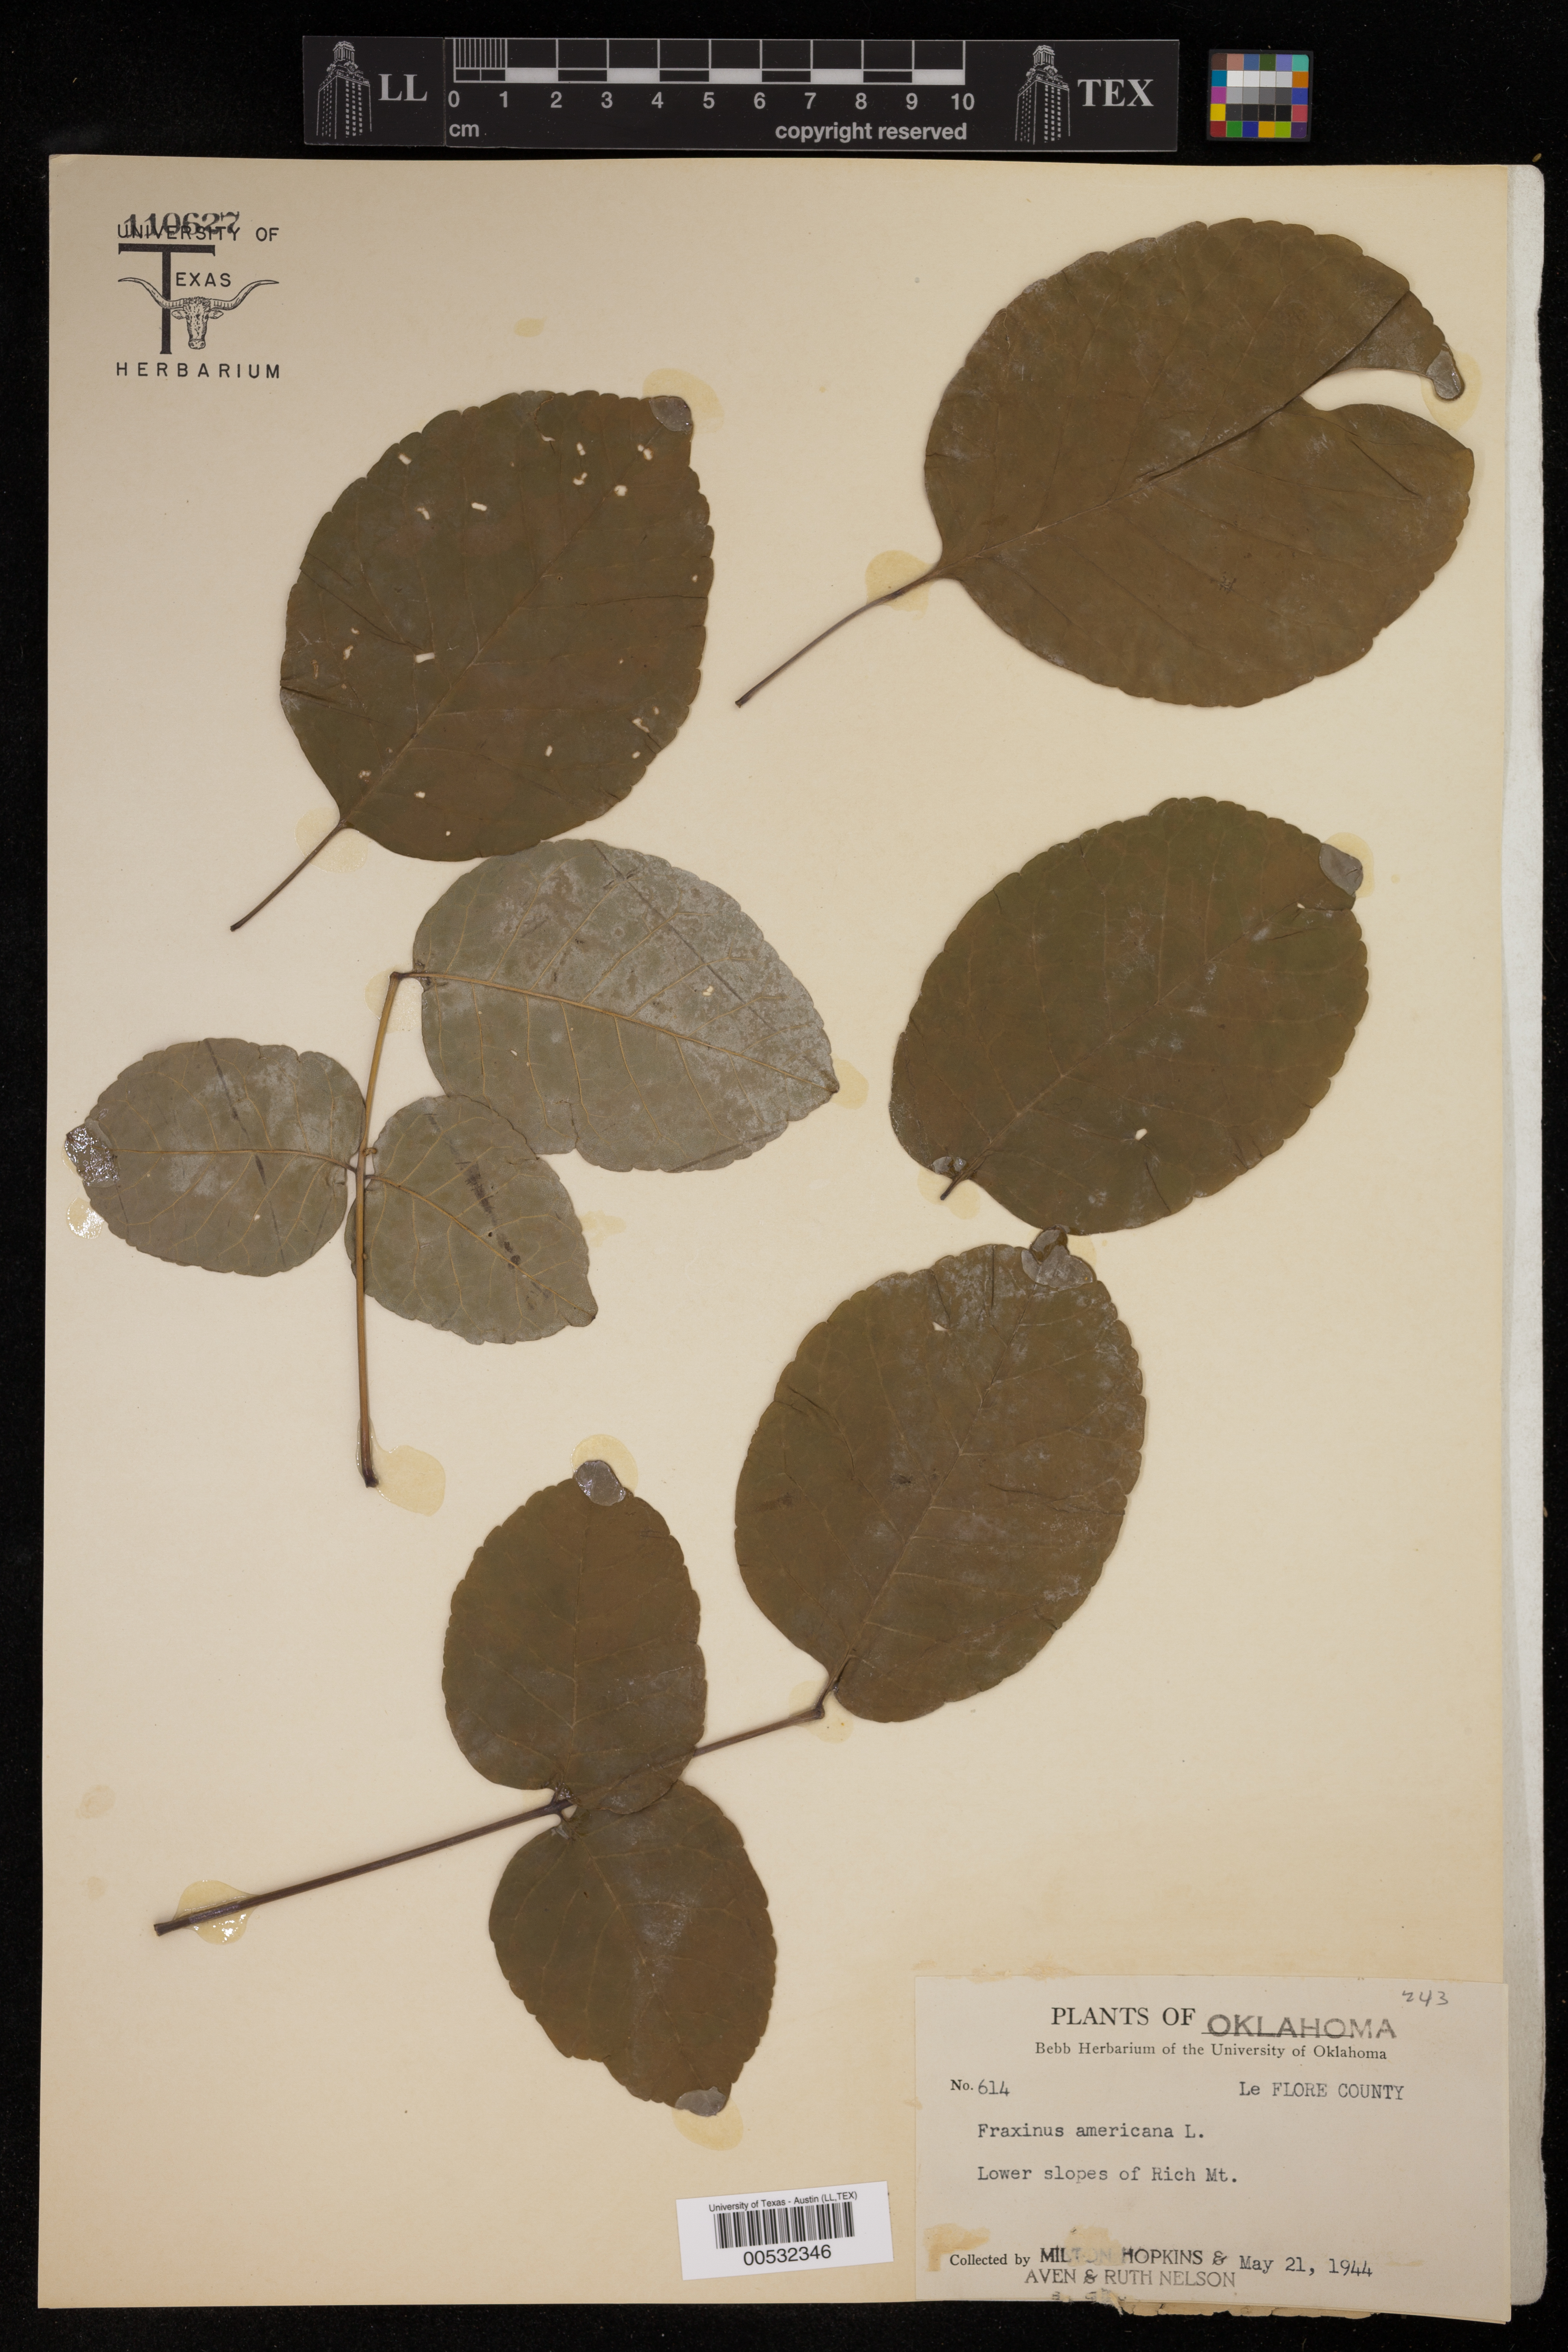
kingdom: Plantae
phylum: Tracheophyta
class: Magnoliopsida
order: Lamiales
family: Oleaceae
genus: Fraxinus
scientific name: Fraxinus americana
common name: White ash
